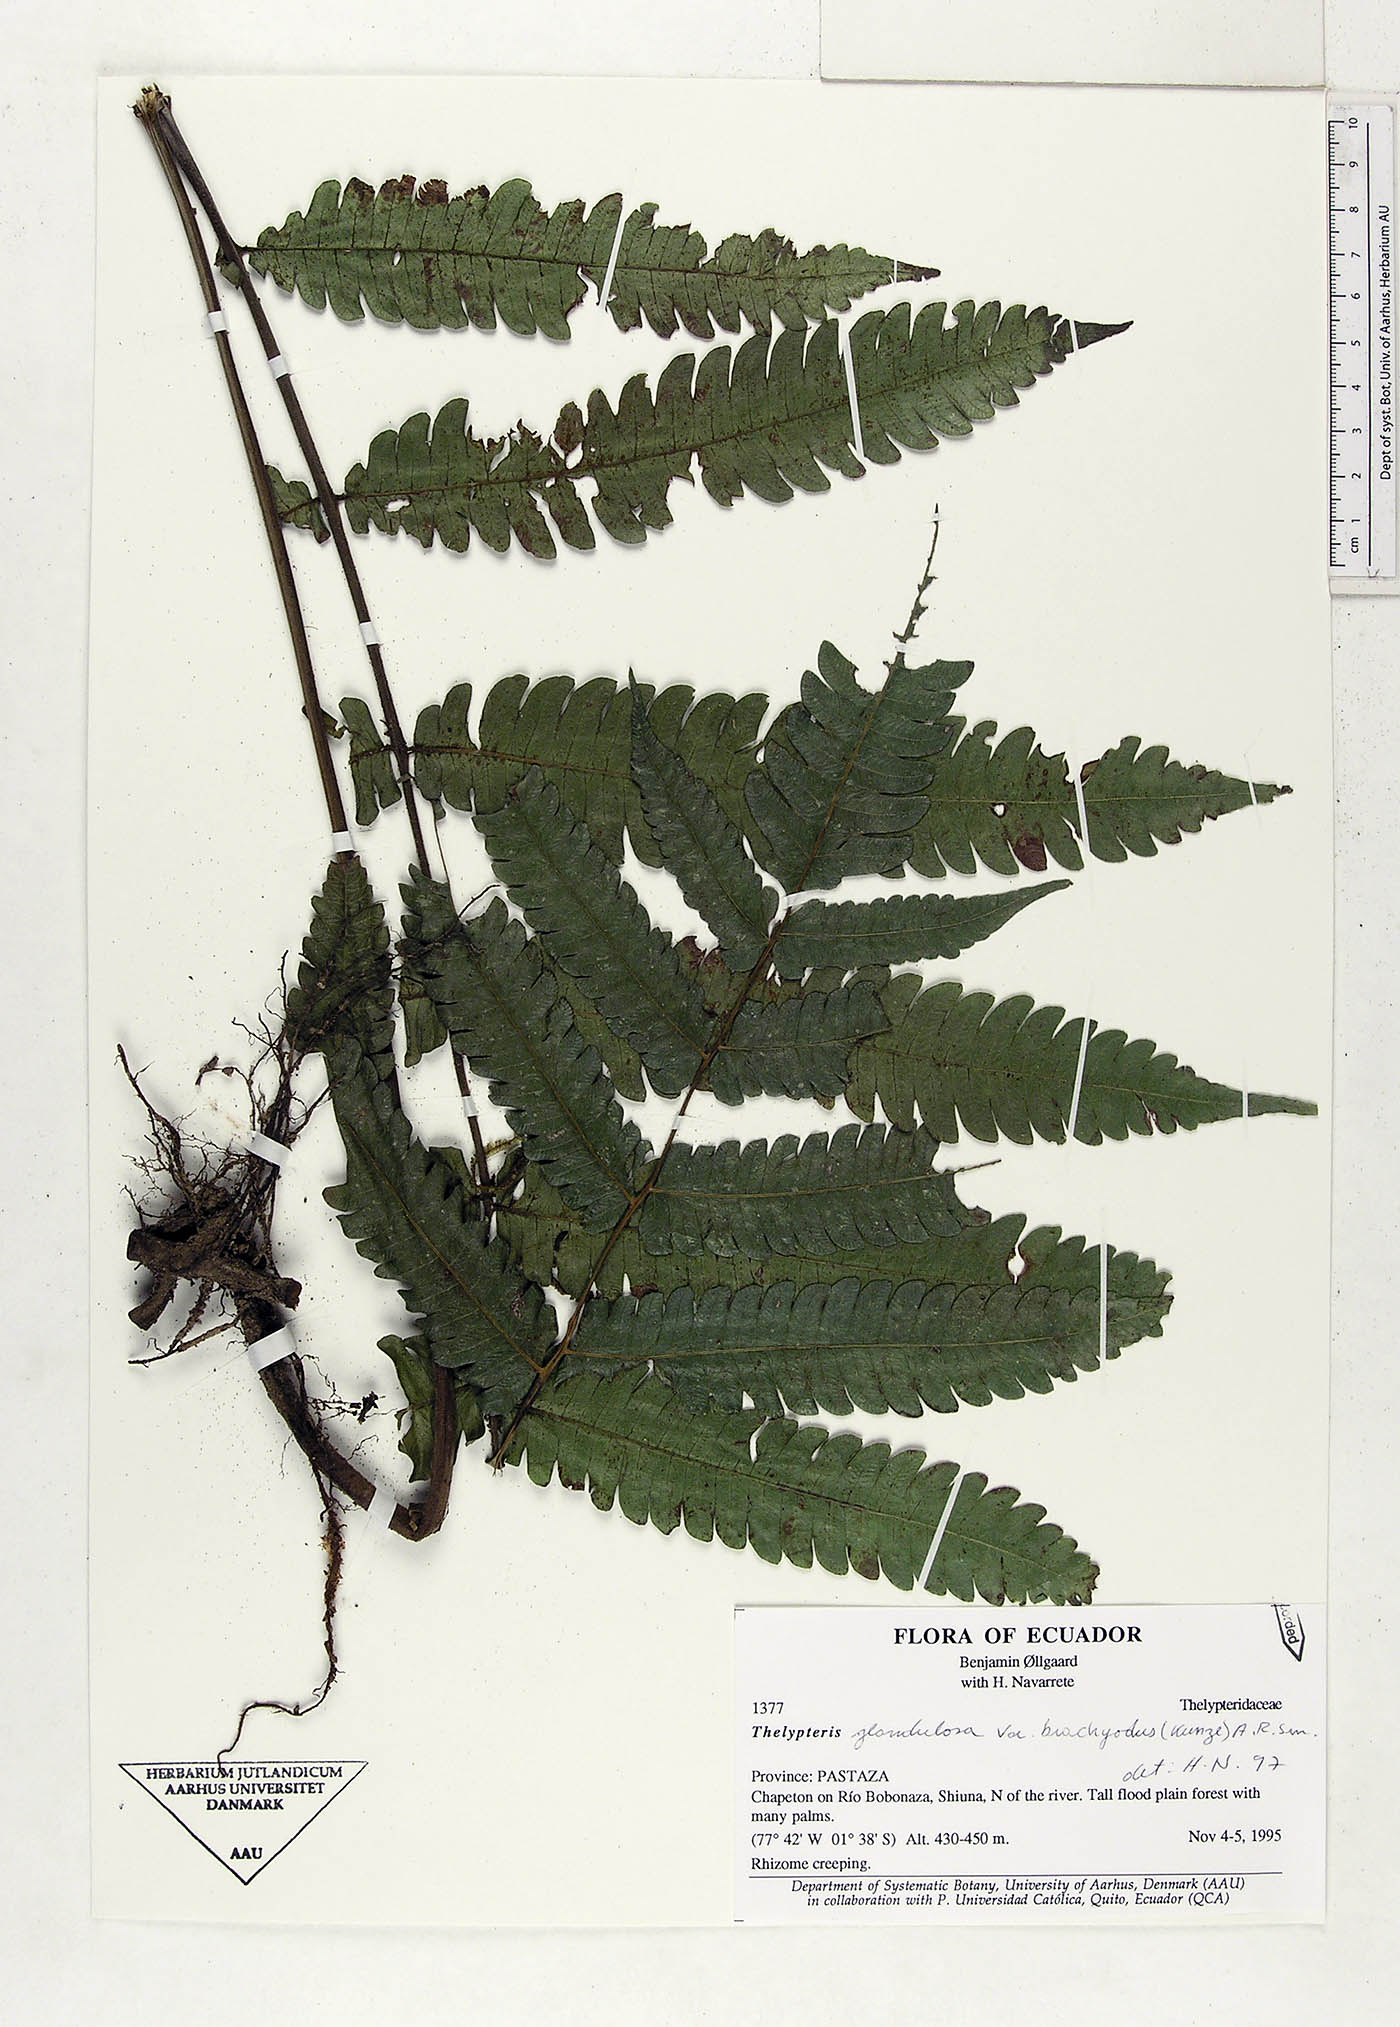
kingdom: Plantae
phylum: Tracheophyta
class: Polypodiopsida
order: Polypodiales
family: Thelypteridaceae
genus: Steiropteris
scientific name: Steiropteris glandulosa
